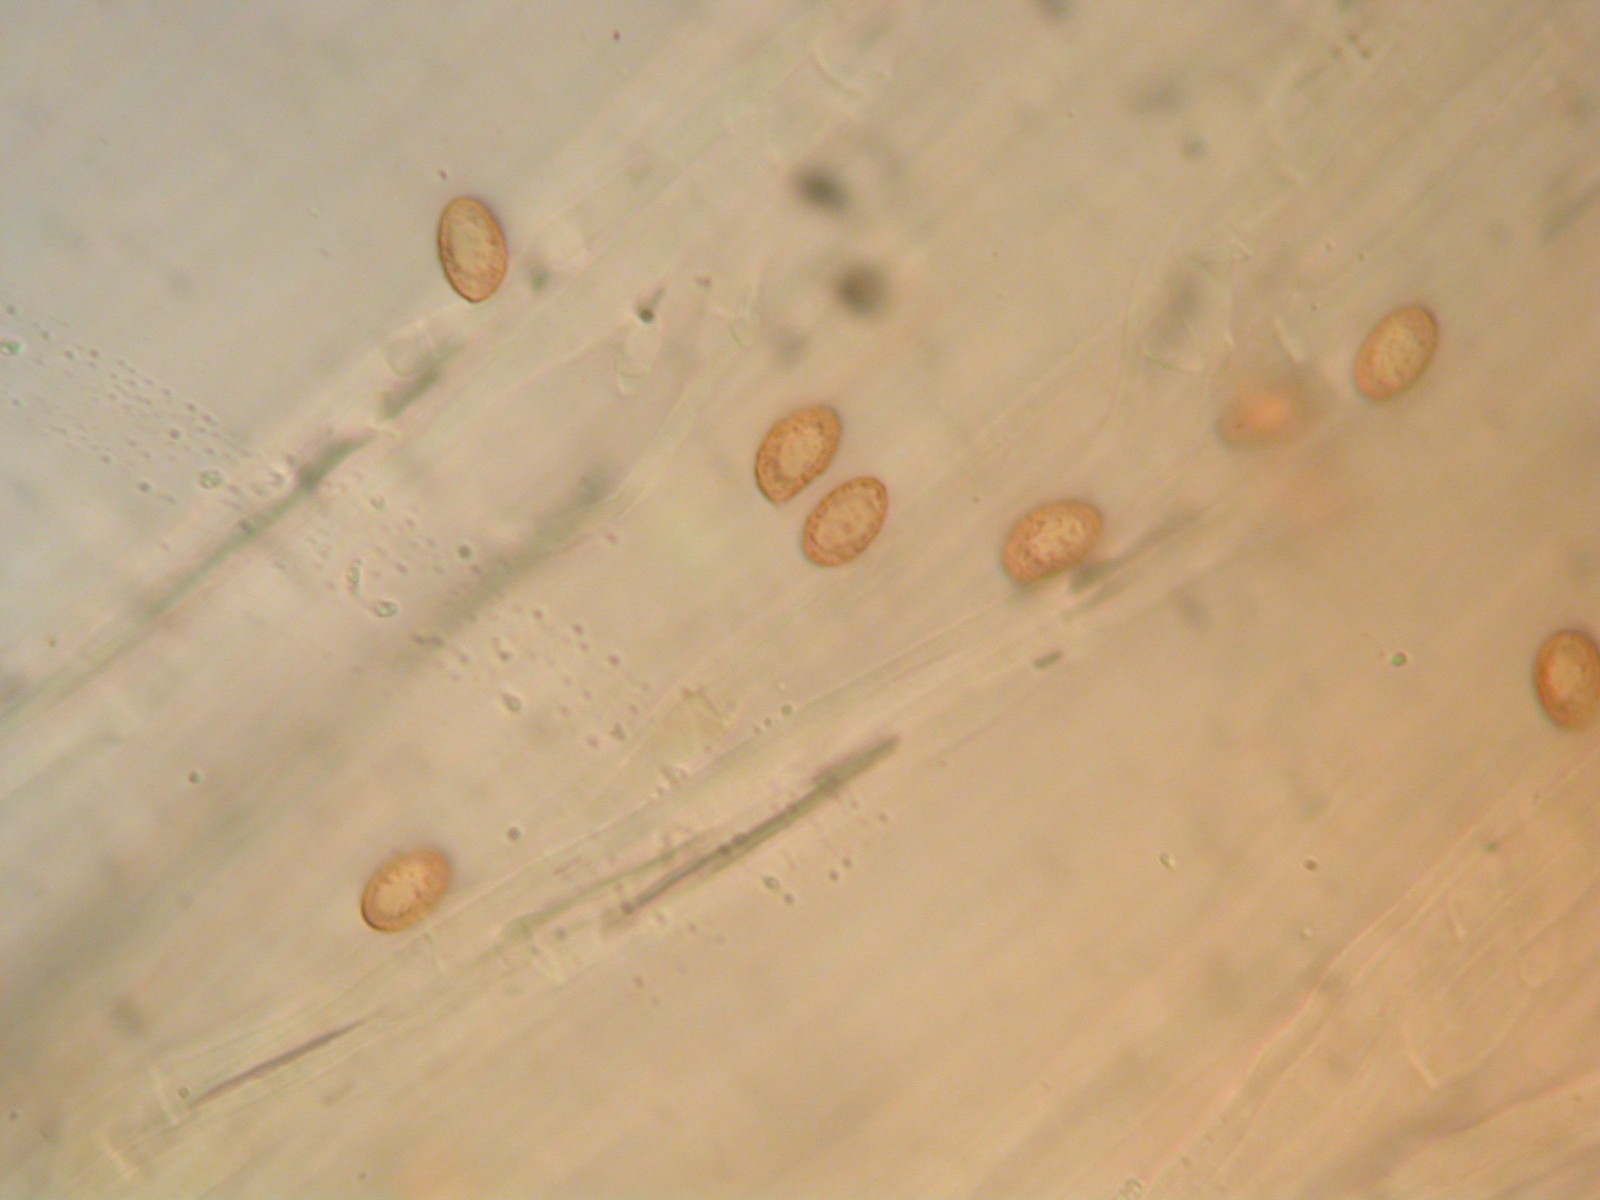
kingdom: Fungi
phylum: Basidiomycota
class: Agaricomycetes
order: Agaricales
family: Cortinariaceae
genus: Cortinarius
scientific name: Cortinarius
